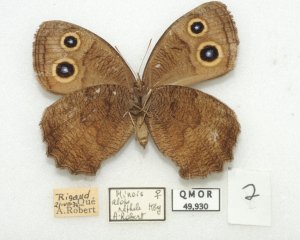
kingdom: Animalia
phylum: Arthropoda
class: Insecta
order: Lepidoptera
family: Nymphalidae
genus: Cercyonis
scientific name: Cercyonis pegala
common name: Common Wood-Nymph
